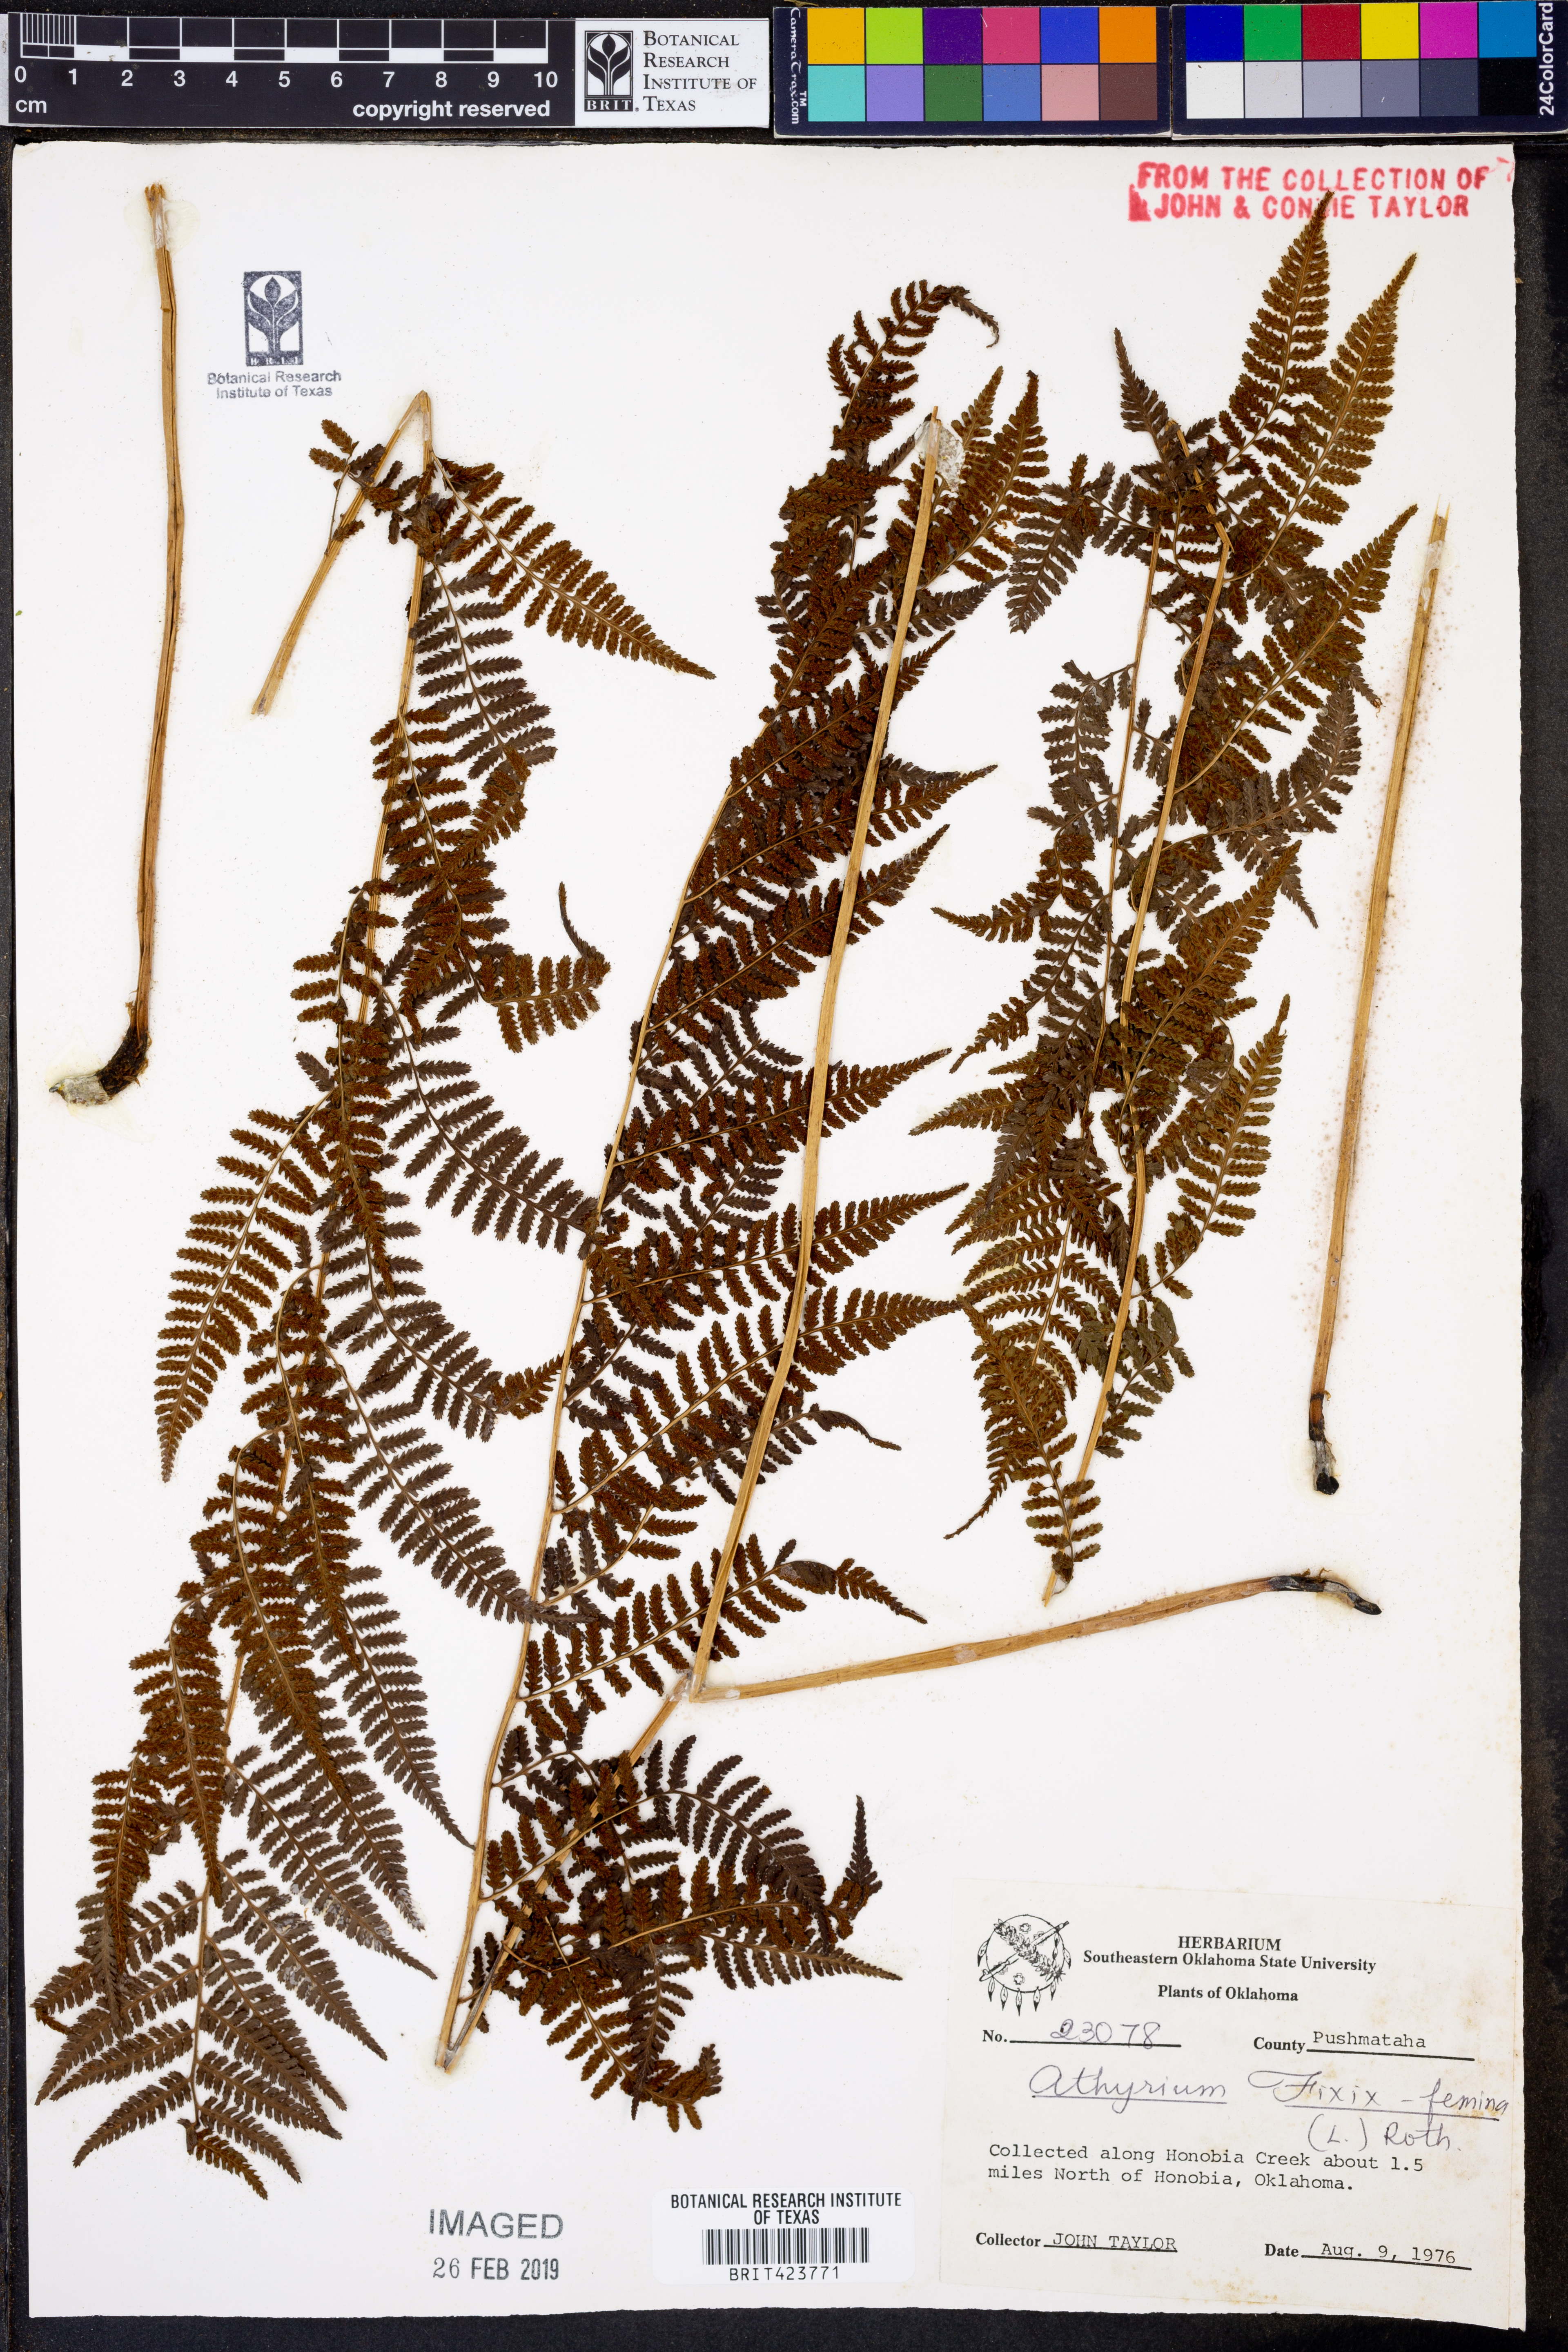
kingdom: Plantae
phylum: Tracheophyta
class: Polypodiopsida
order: Polypodiales
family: Athyriaceae
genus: Athyrium
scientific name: Athyrium filix-femina
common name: Lady fern
